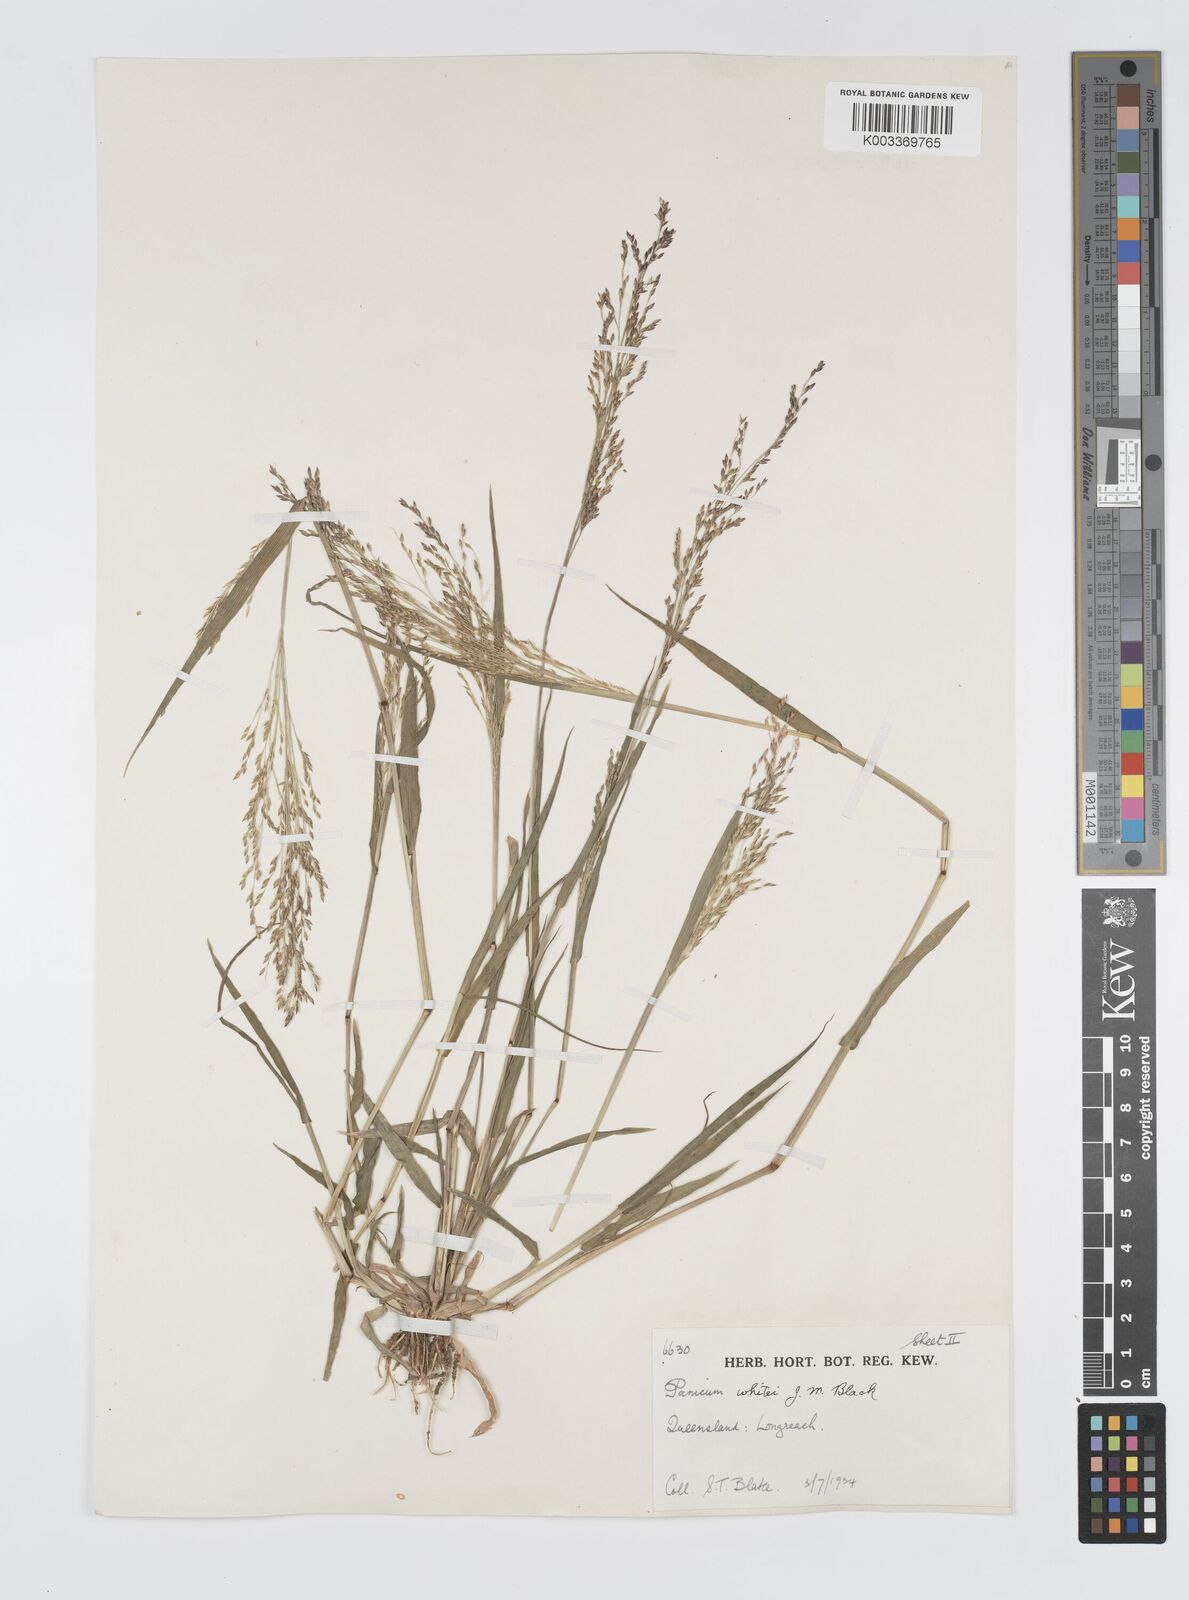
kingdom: Plantae
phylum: Tracheophyta
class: Liliopsida
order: Poales
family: Poaceae
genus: Panicum
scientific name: Panicum laevinode
